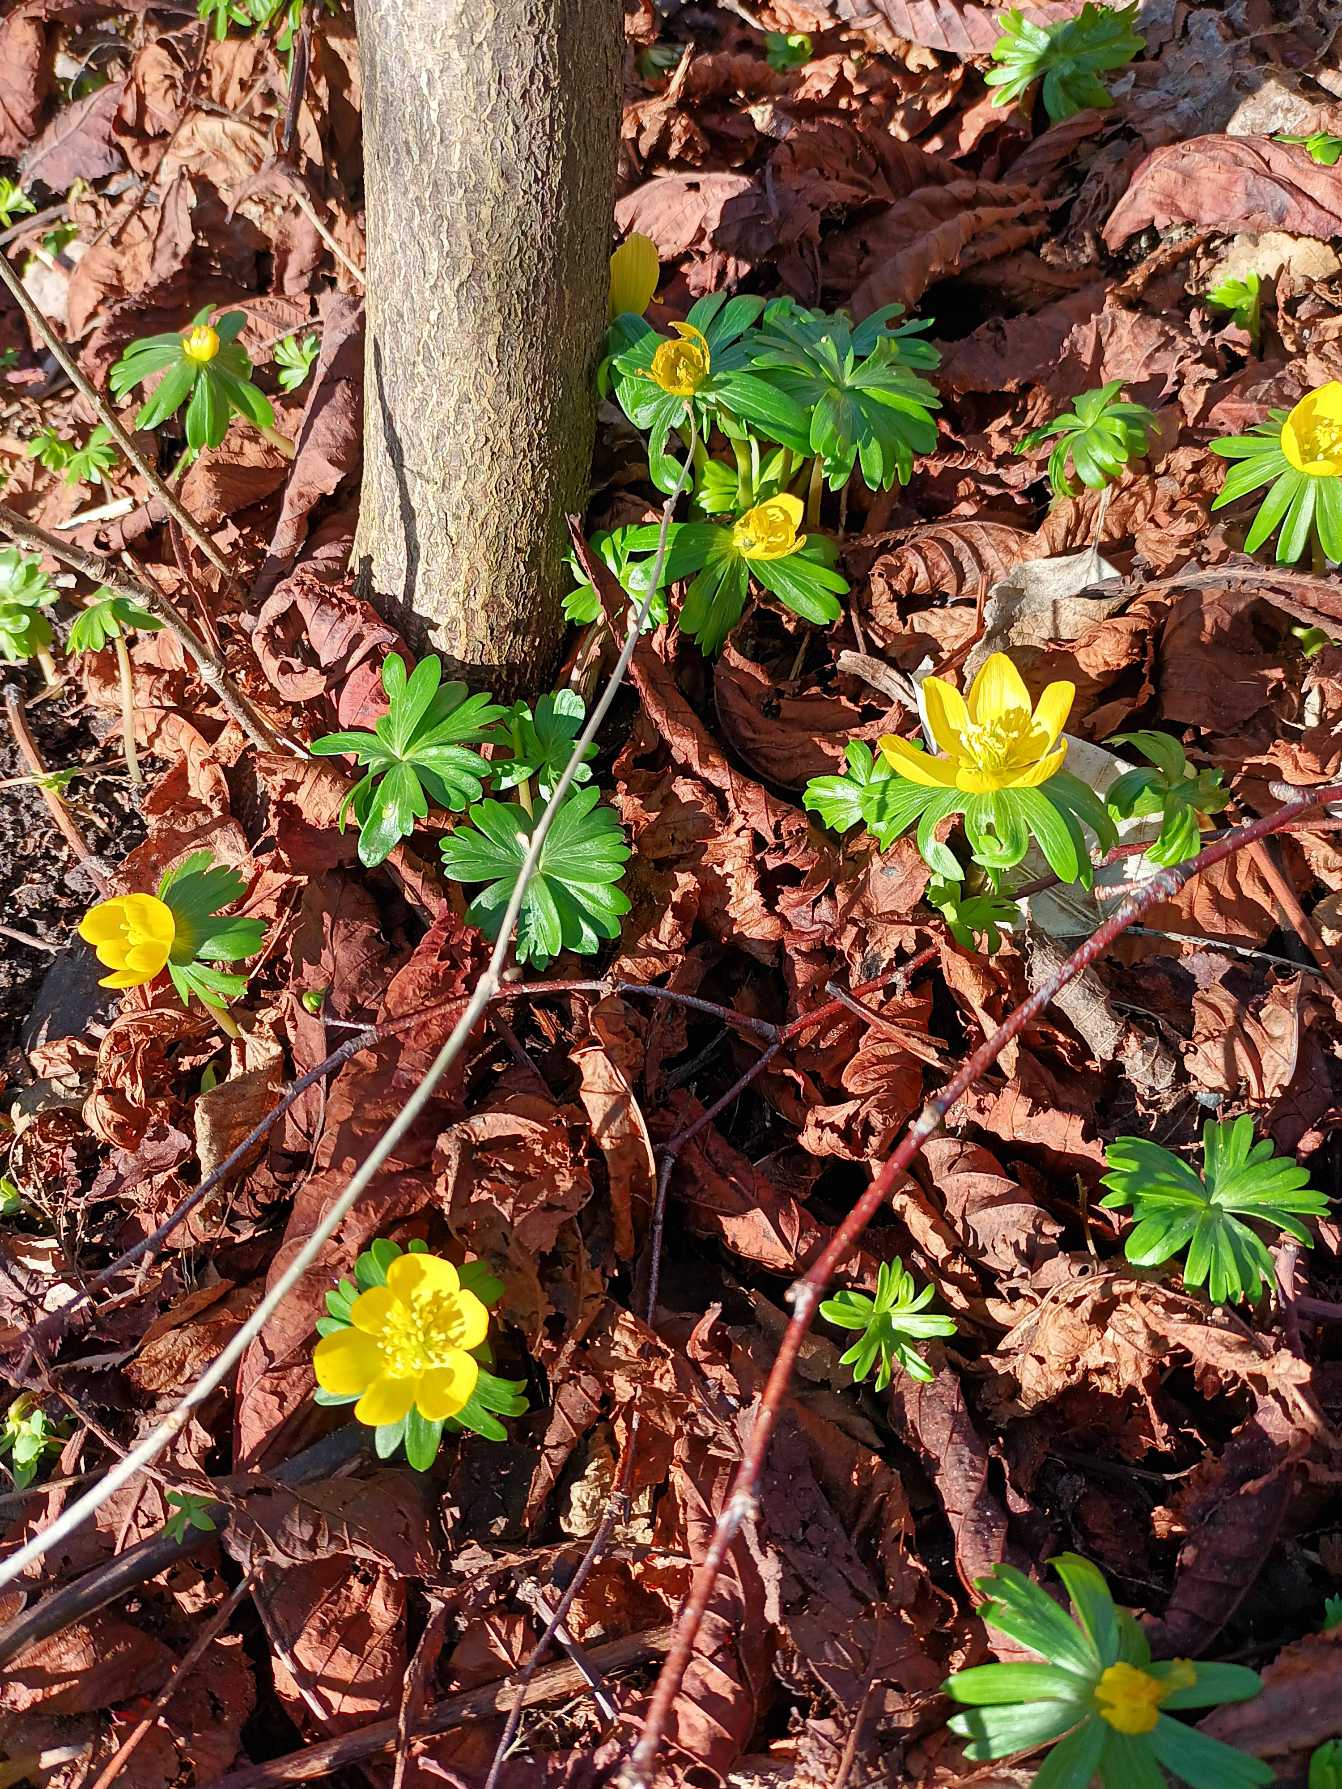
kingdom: Plantae
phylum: Tracheophyta
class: Magnoliopsida
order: Ranunculales
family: Ranunculaceae
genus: Eranthis
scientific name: Eranthis hyemalis
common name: Erantis
